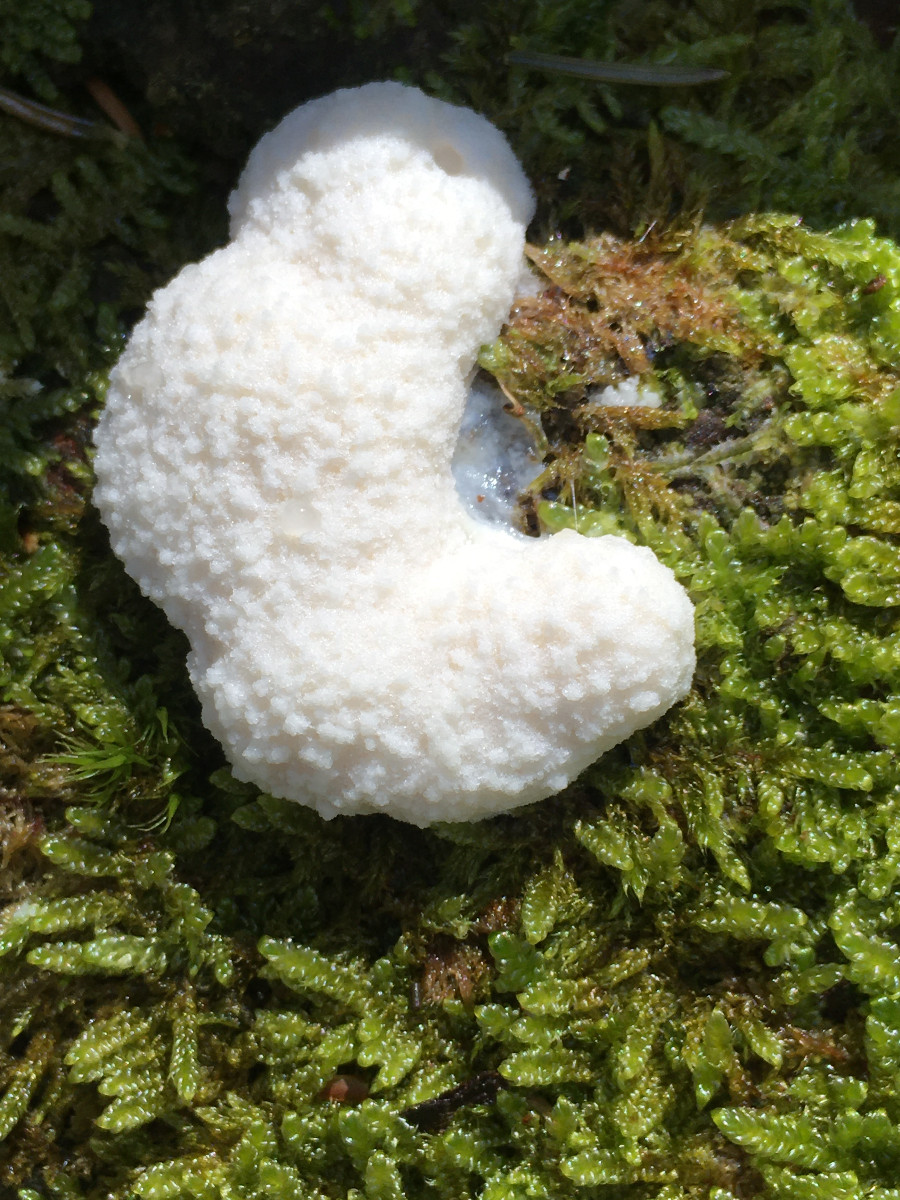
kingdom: Protozoa
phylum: Mycetozoa
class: Myxomycetes
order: Cribrariales
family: Tubiferaceae
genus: Reticularia
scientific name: Reticularia
